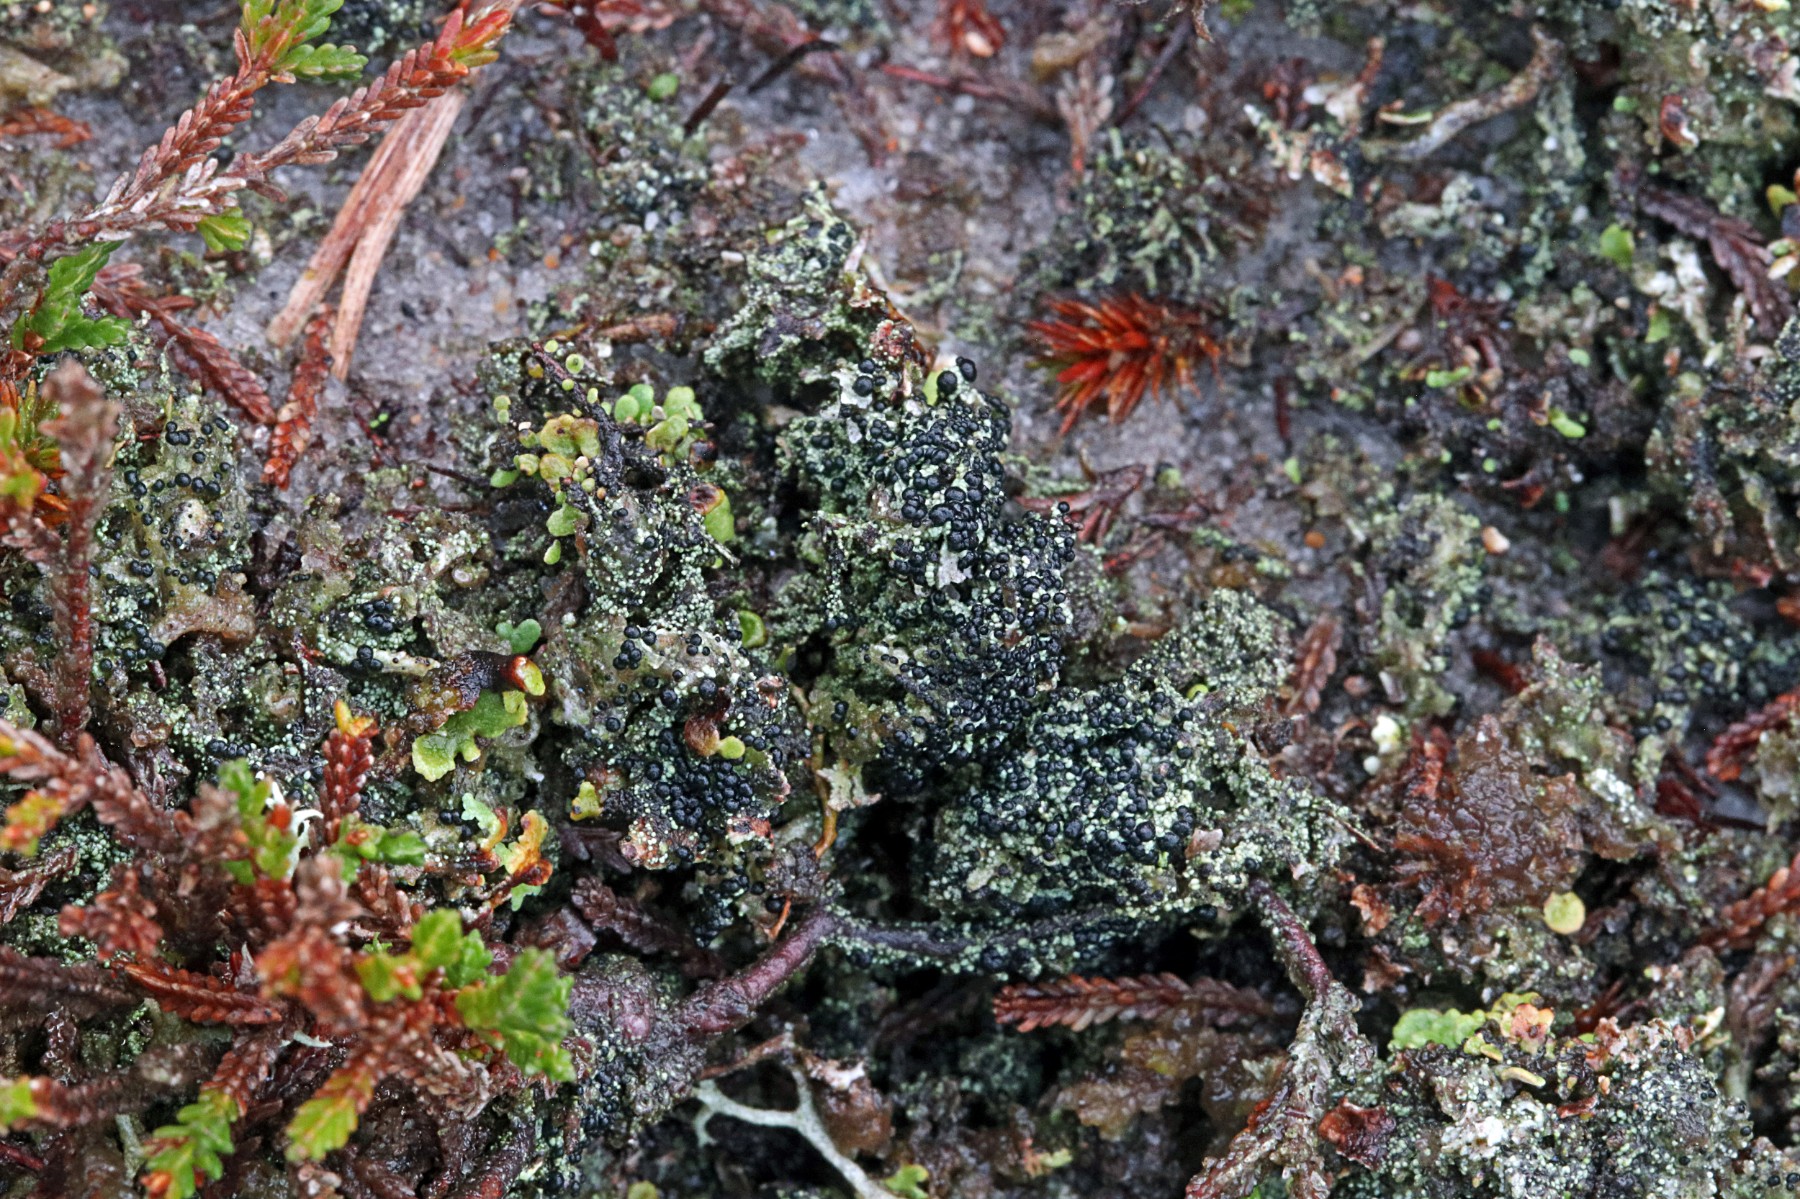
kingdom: Fungi
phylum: Ascomycota
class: Lecanoromycetes
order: Lecanorales
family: Byssolomataceae
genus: Micarea
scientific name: Micarea lignaria
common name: tørve-knaplav
